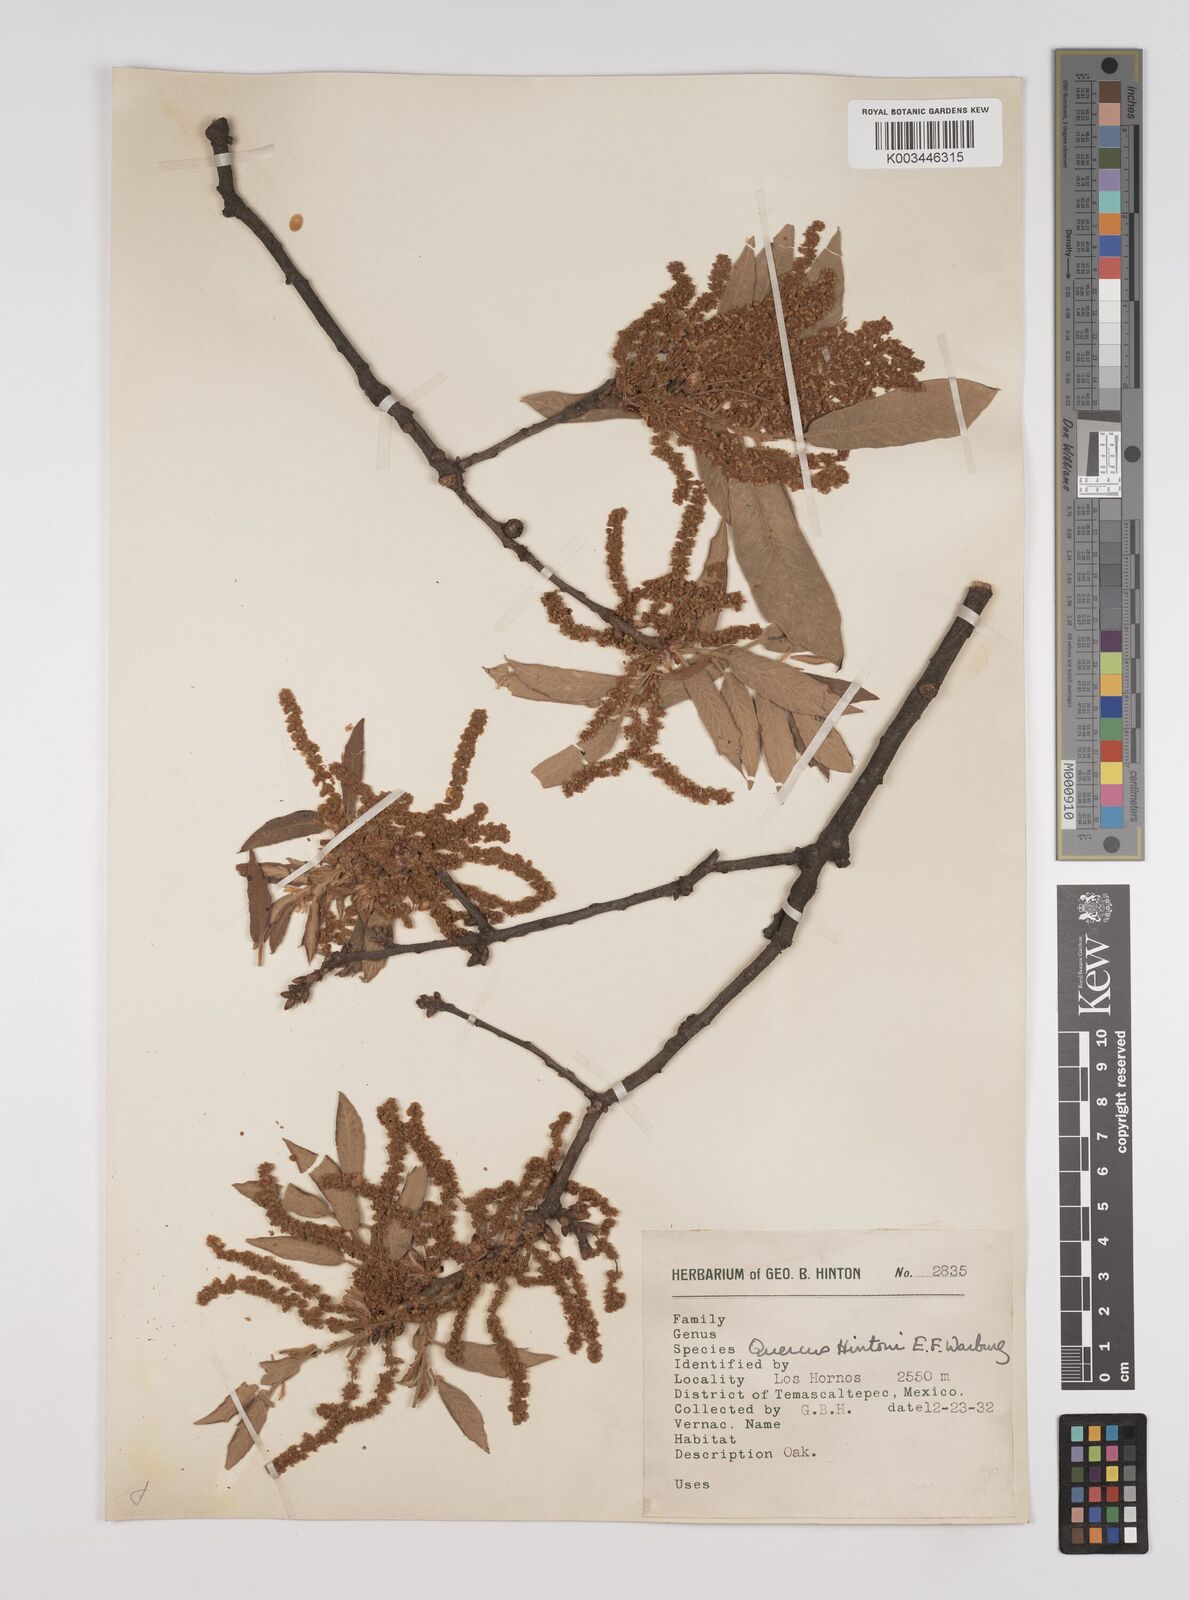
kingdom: Plantae
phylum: Tracheophyta
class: Magnoliopsida
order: Fagales
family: Fagaceae
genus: Quercus
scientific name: Quercus hintonii
